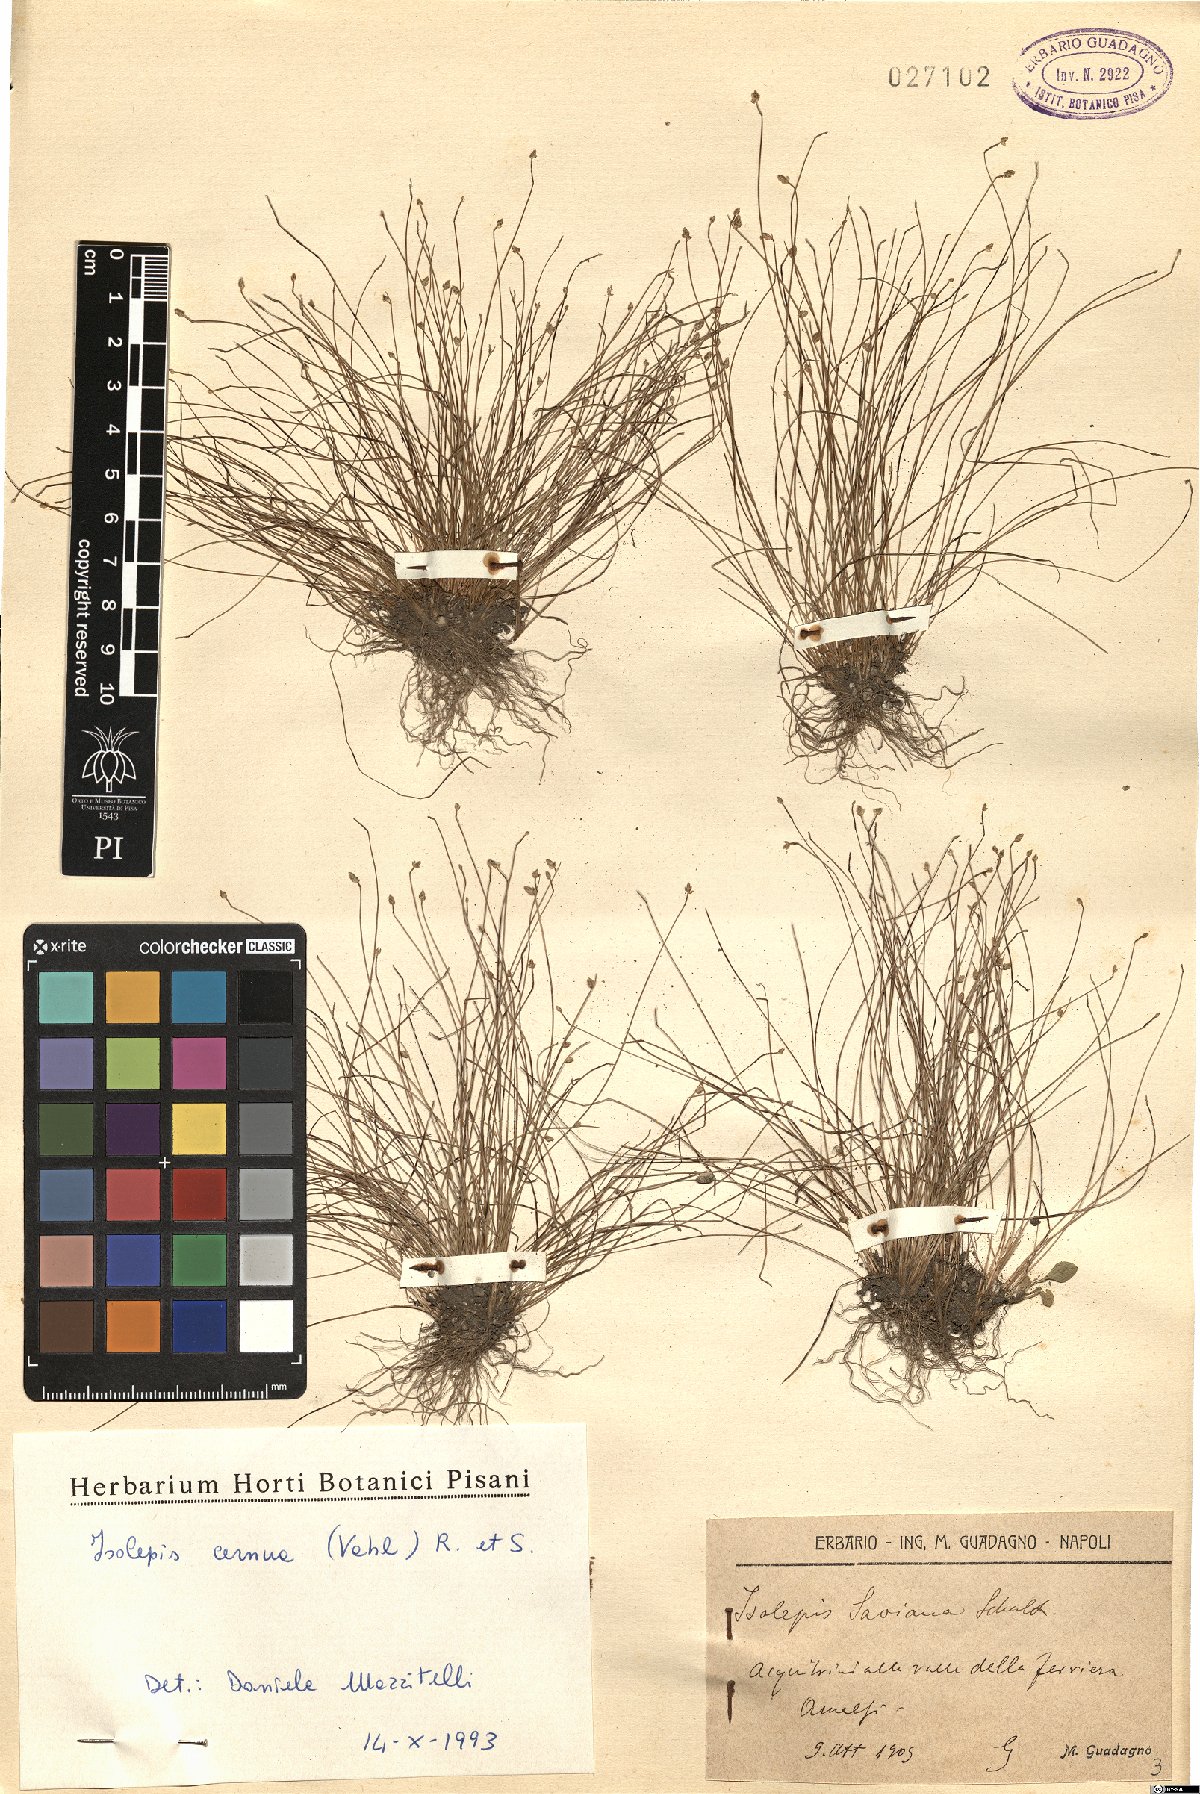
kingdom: Plantae
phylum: Tracheophyta
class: Liliopsida
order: Poales
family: Cyperaceae
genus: Isolepis
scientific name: Isolepis cernua
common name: Slender club-rush
